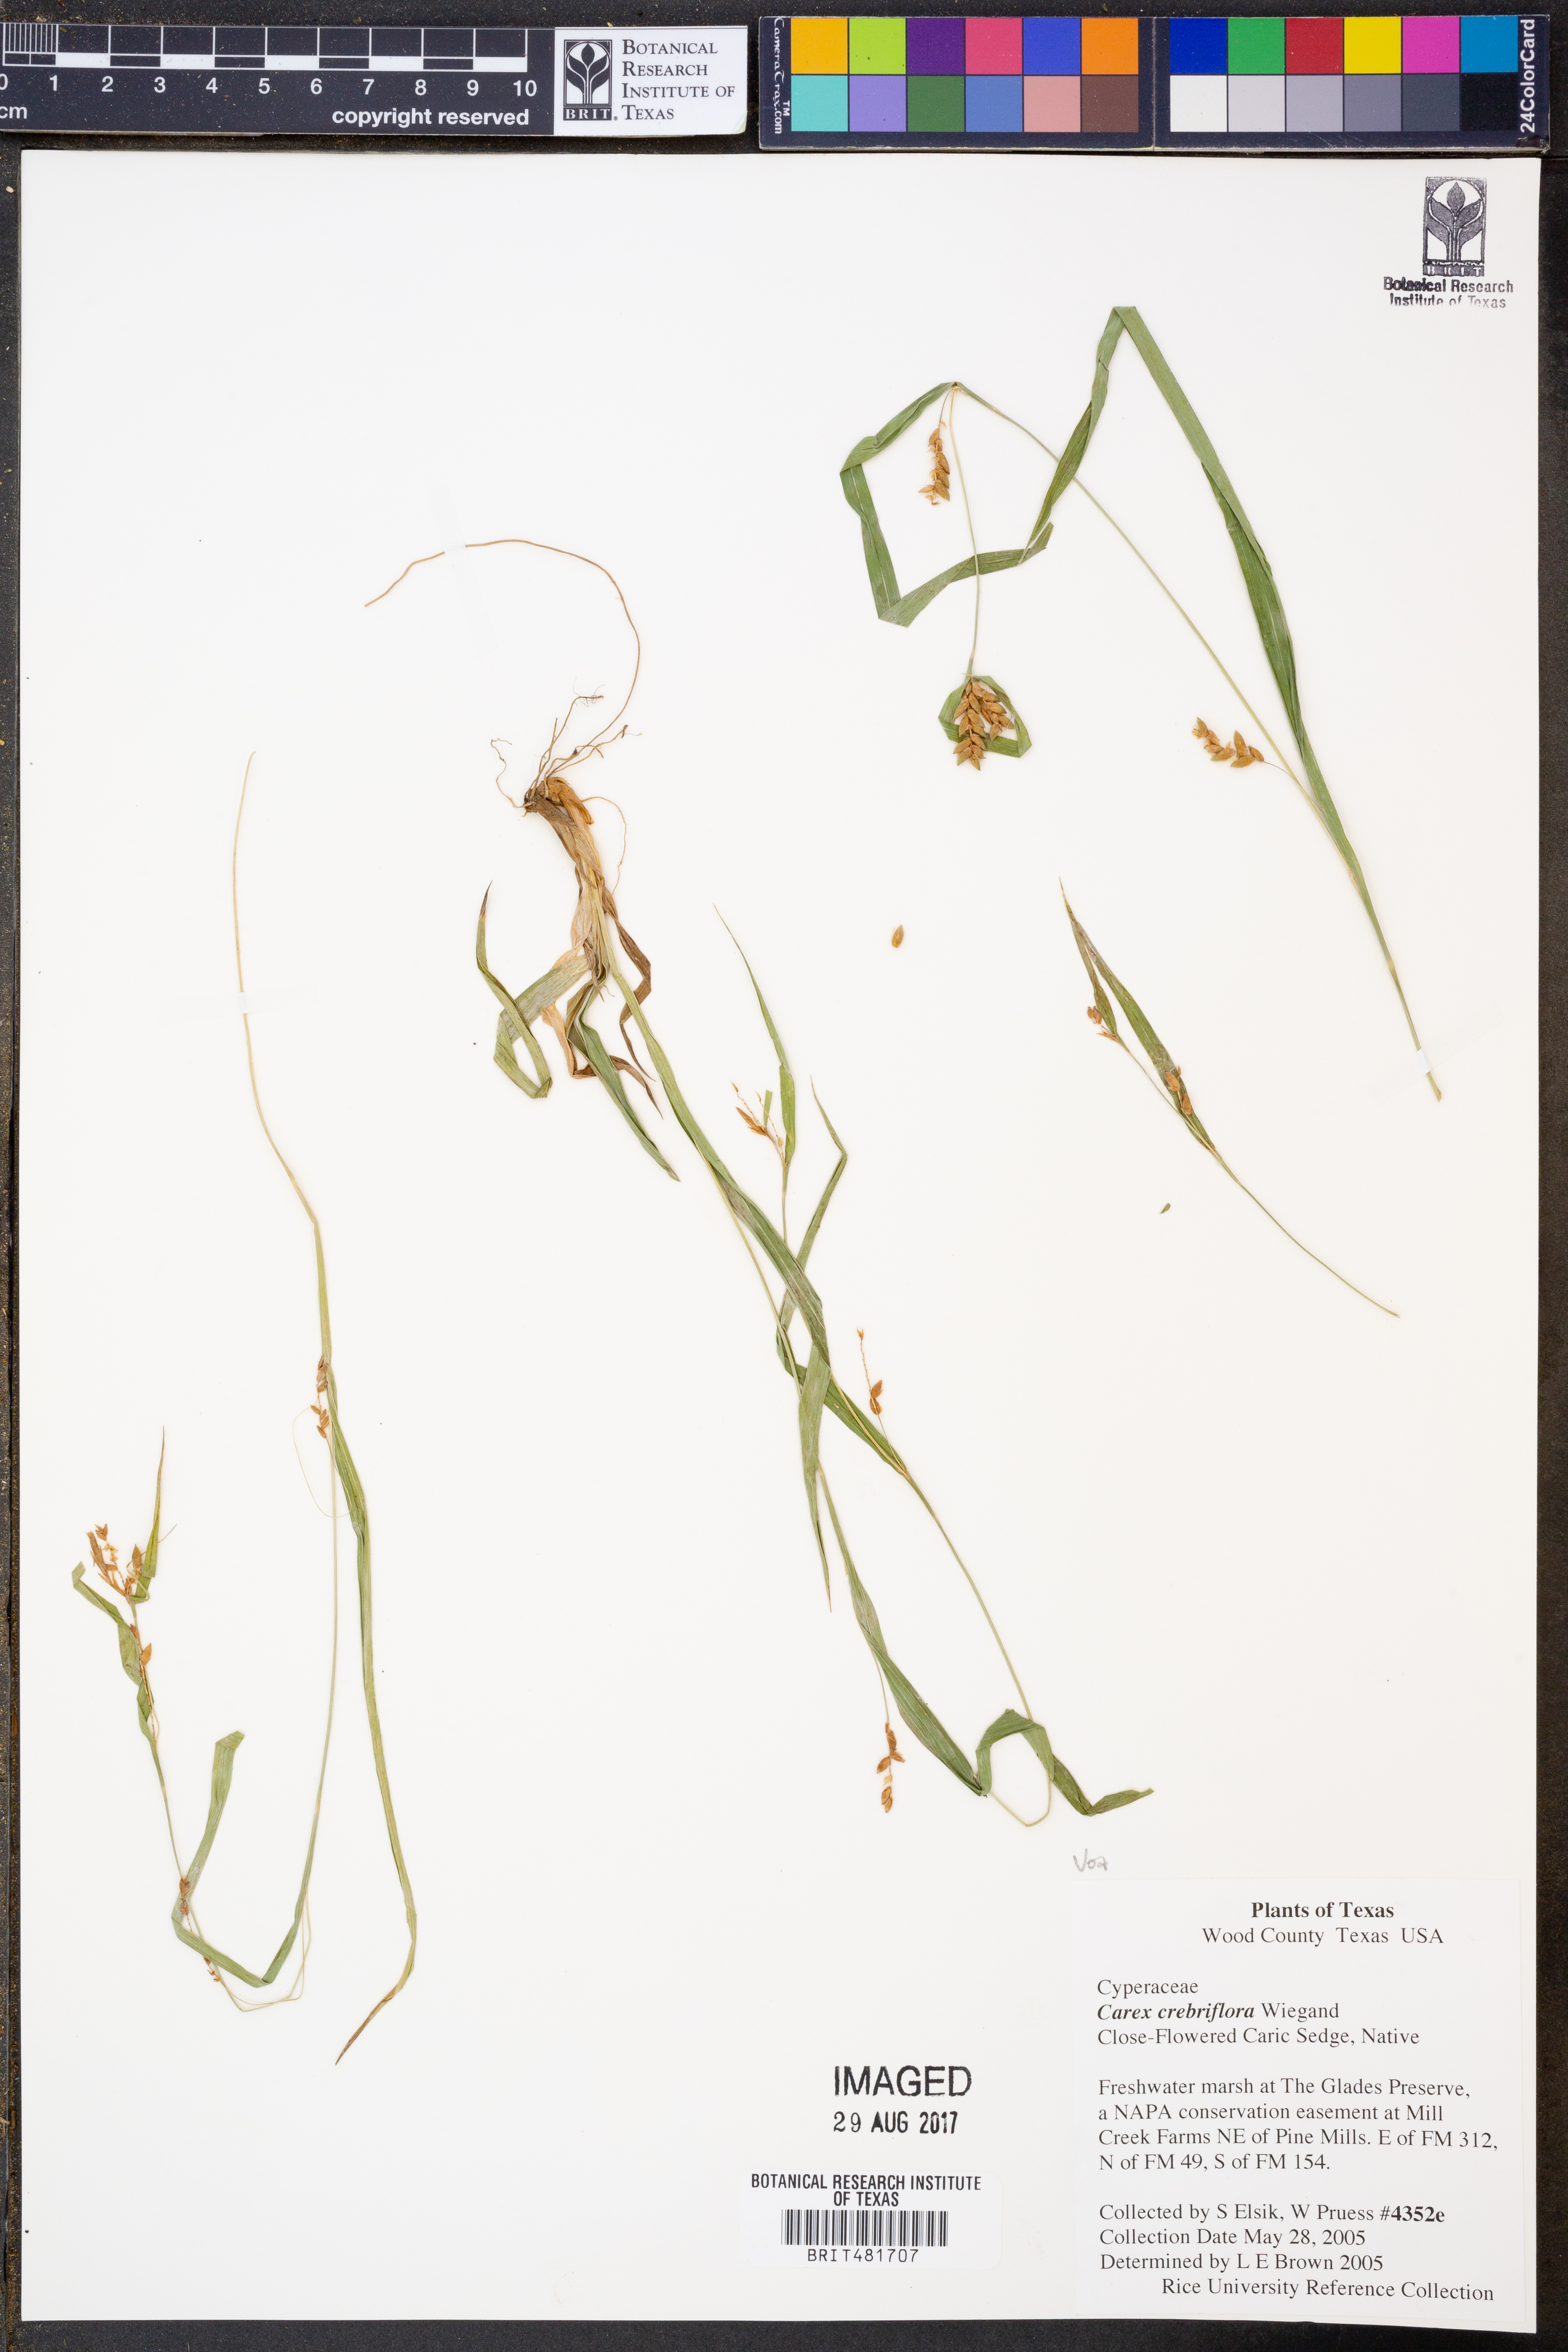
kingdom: Plantae
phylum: Tracheophyta
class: Liliopsida
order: Poales
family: Cyperaceae
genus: Carex
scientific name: Carex crebriflora
